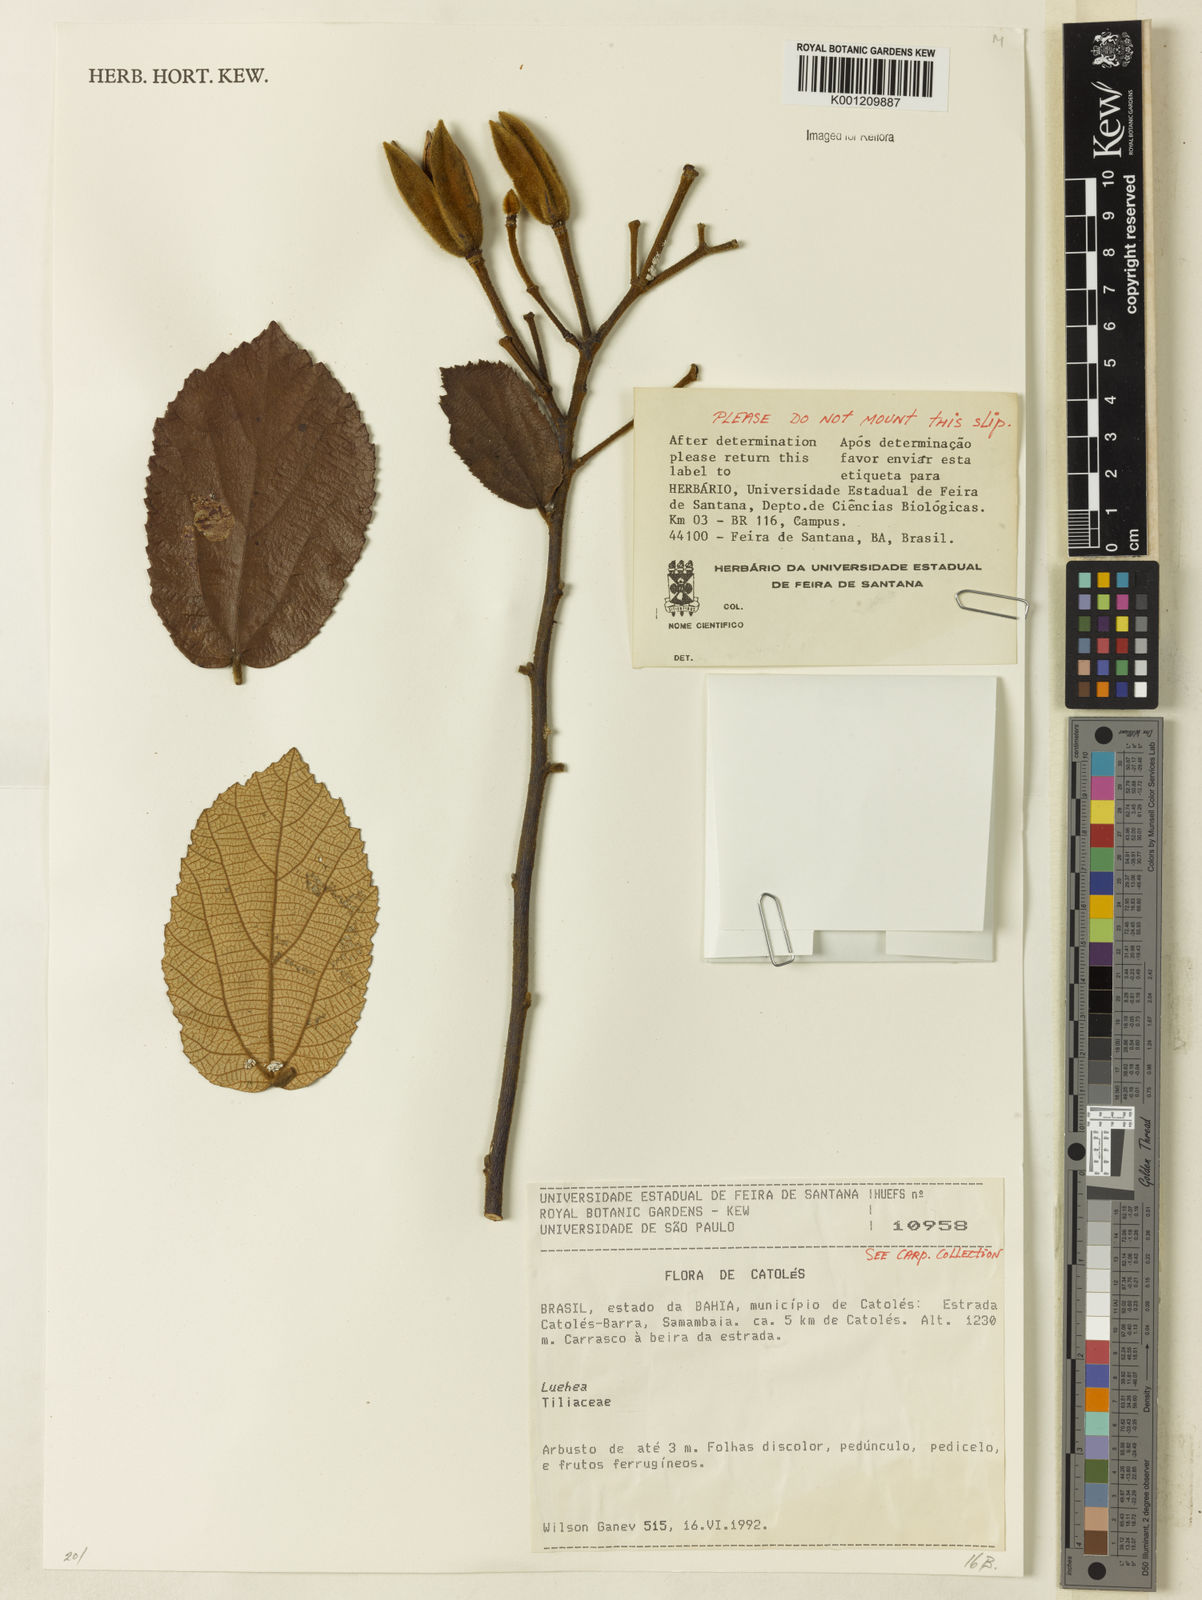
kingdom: Plantae
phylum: Tracheophyta
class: Magnoliopsida
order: Malvales
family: Malvaceae
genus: Luehea
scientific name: Luehea
